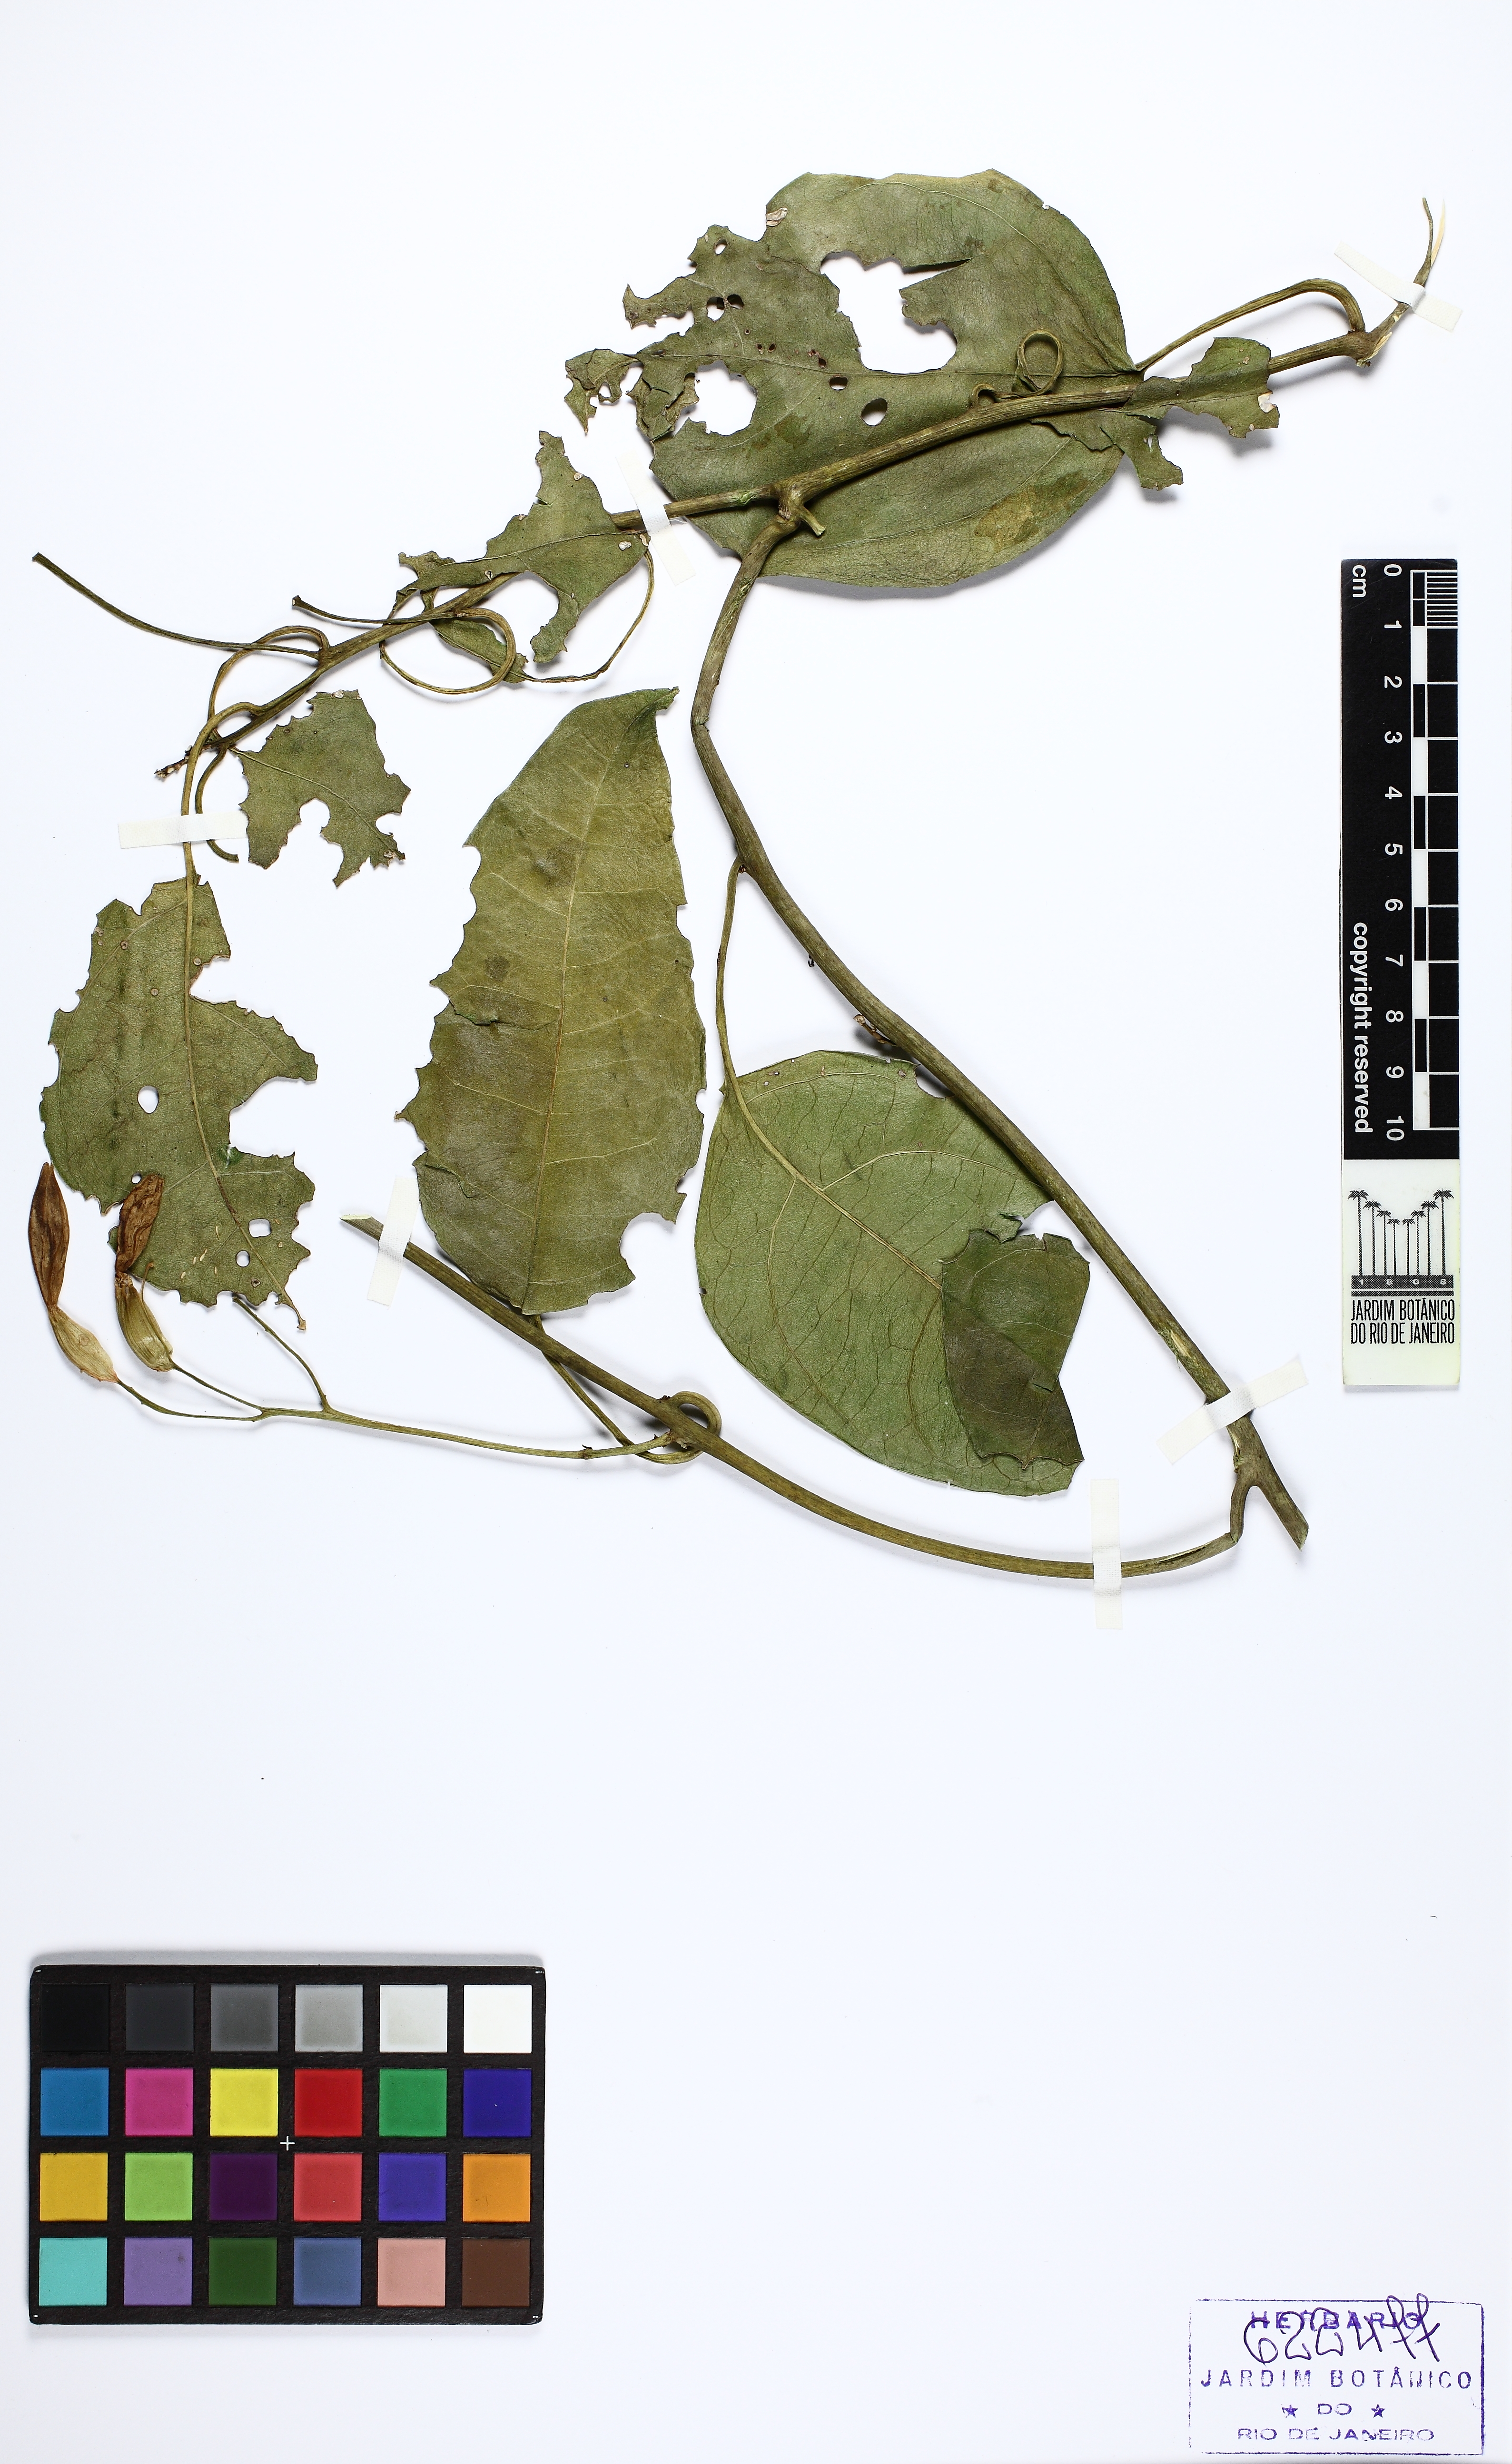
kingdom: Plantae
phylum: Tracheophyta
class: Magnoliopsida
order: Caryophyllales
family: Nyctaginaceae
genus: Belemia
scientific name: Belemia fucsioides
